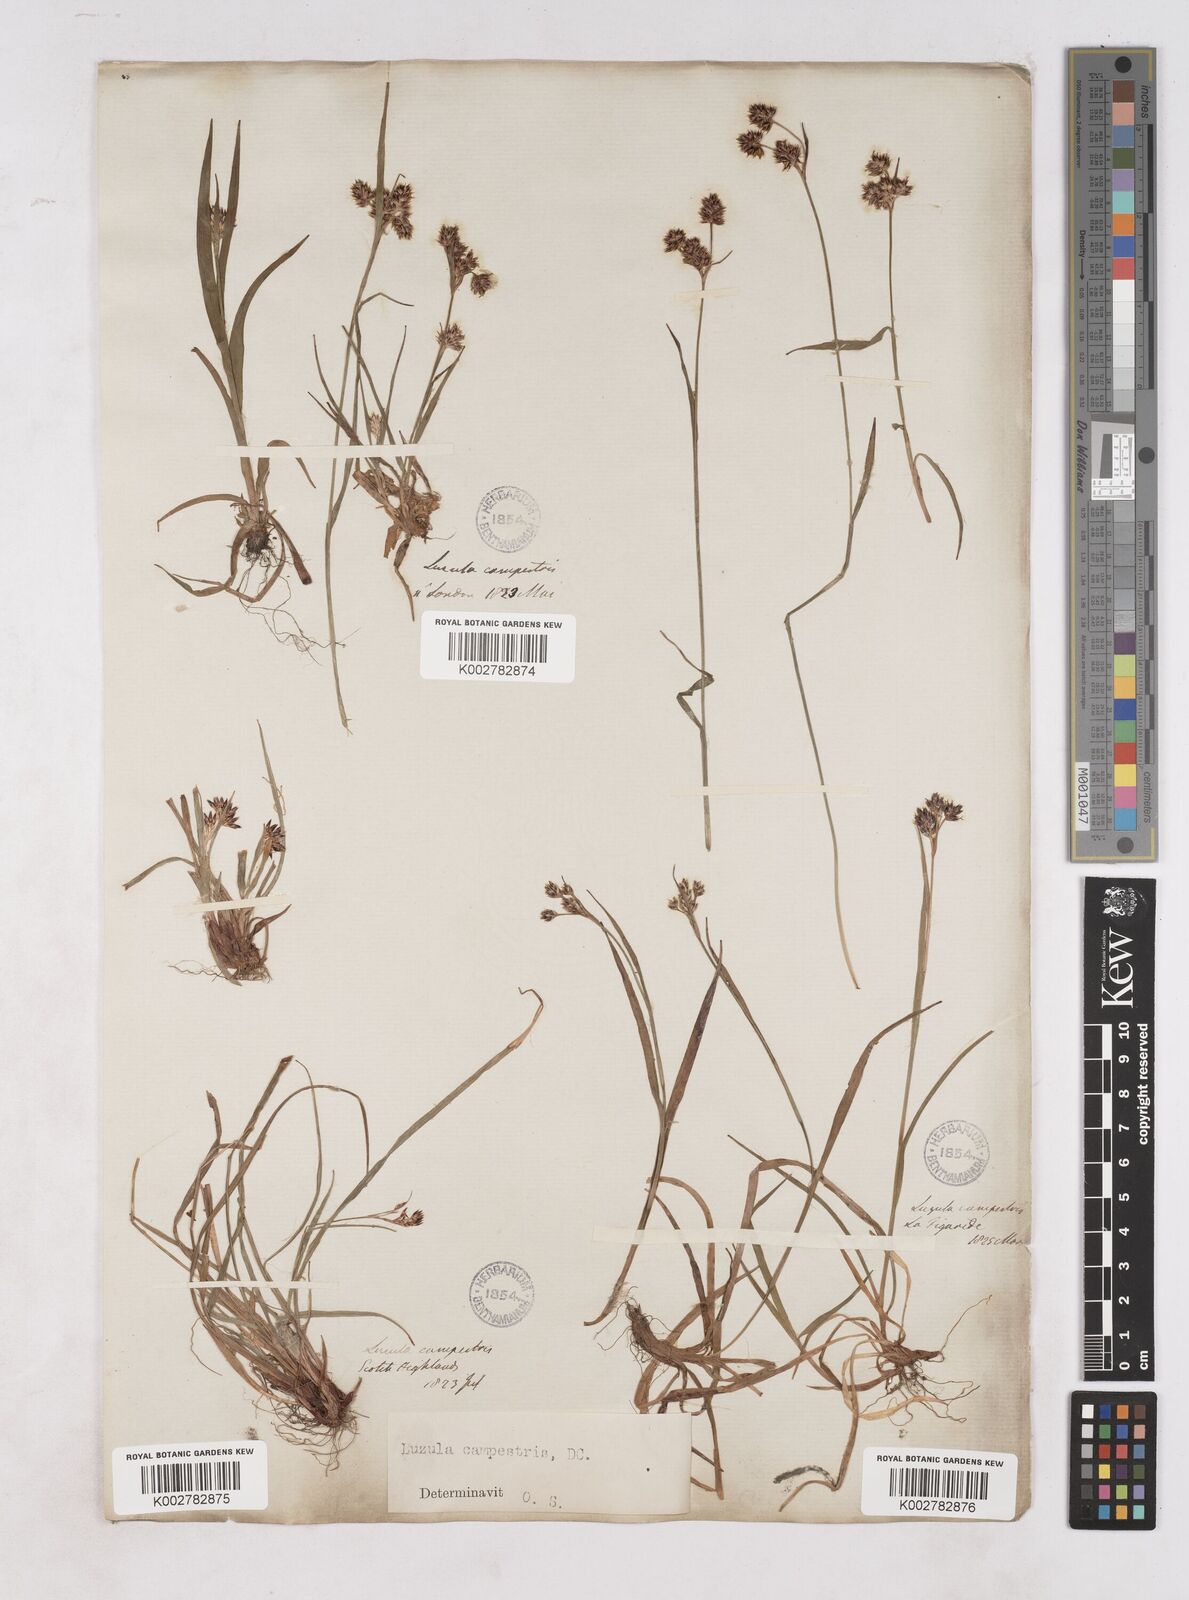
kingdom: Plantae
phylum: Tracheophyta
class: Liliopsida
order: Poales
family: Juncaceae
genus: Luzula
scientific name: Luzula campestris
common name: Field wood-rush
